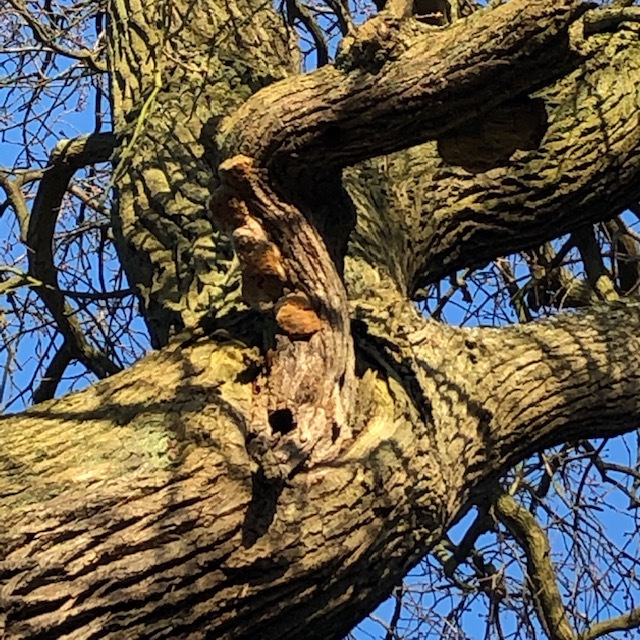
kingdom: Fungi
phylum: Basidiomycota
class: Agaricomycetes
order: Hymenochaetales
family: Hymenochaetaceae
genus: Fomitiporia
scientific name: Fomitiporia robusta
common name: ege-ildporesvamp
